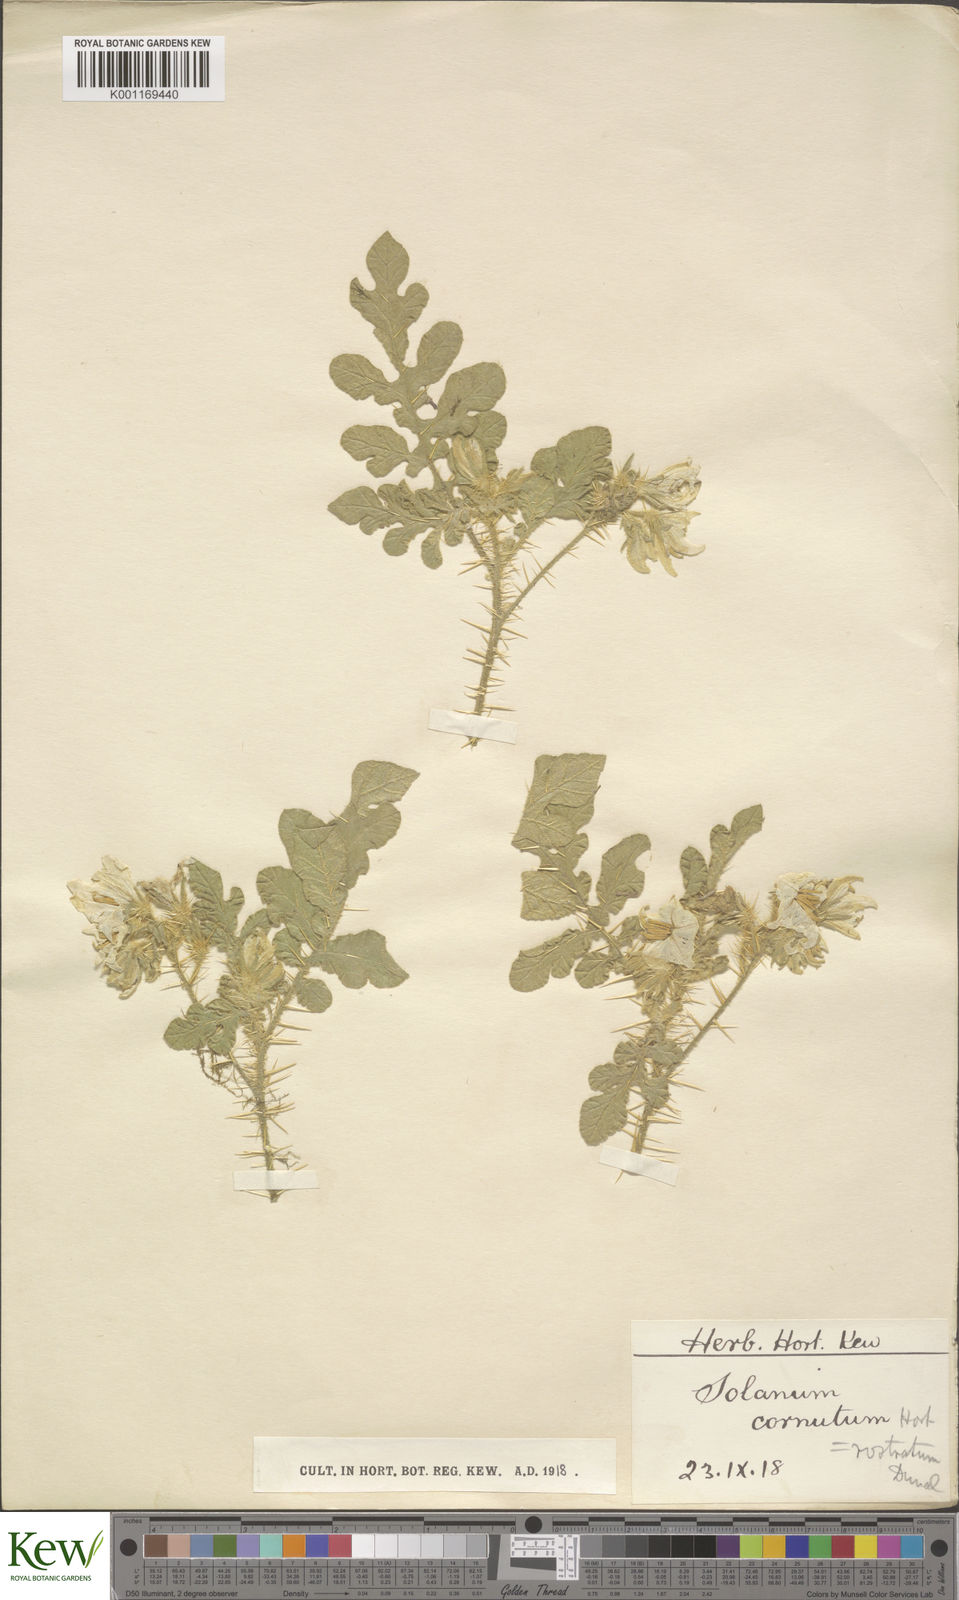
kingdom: Plantae
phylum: Tracheophyta
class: Magnoliopsida
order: Solanales
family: Solanaceae
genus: Solanum
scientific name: Solanum angustifolium
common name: Buffalobur nightshade
